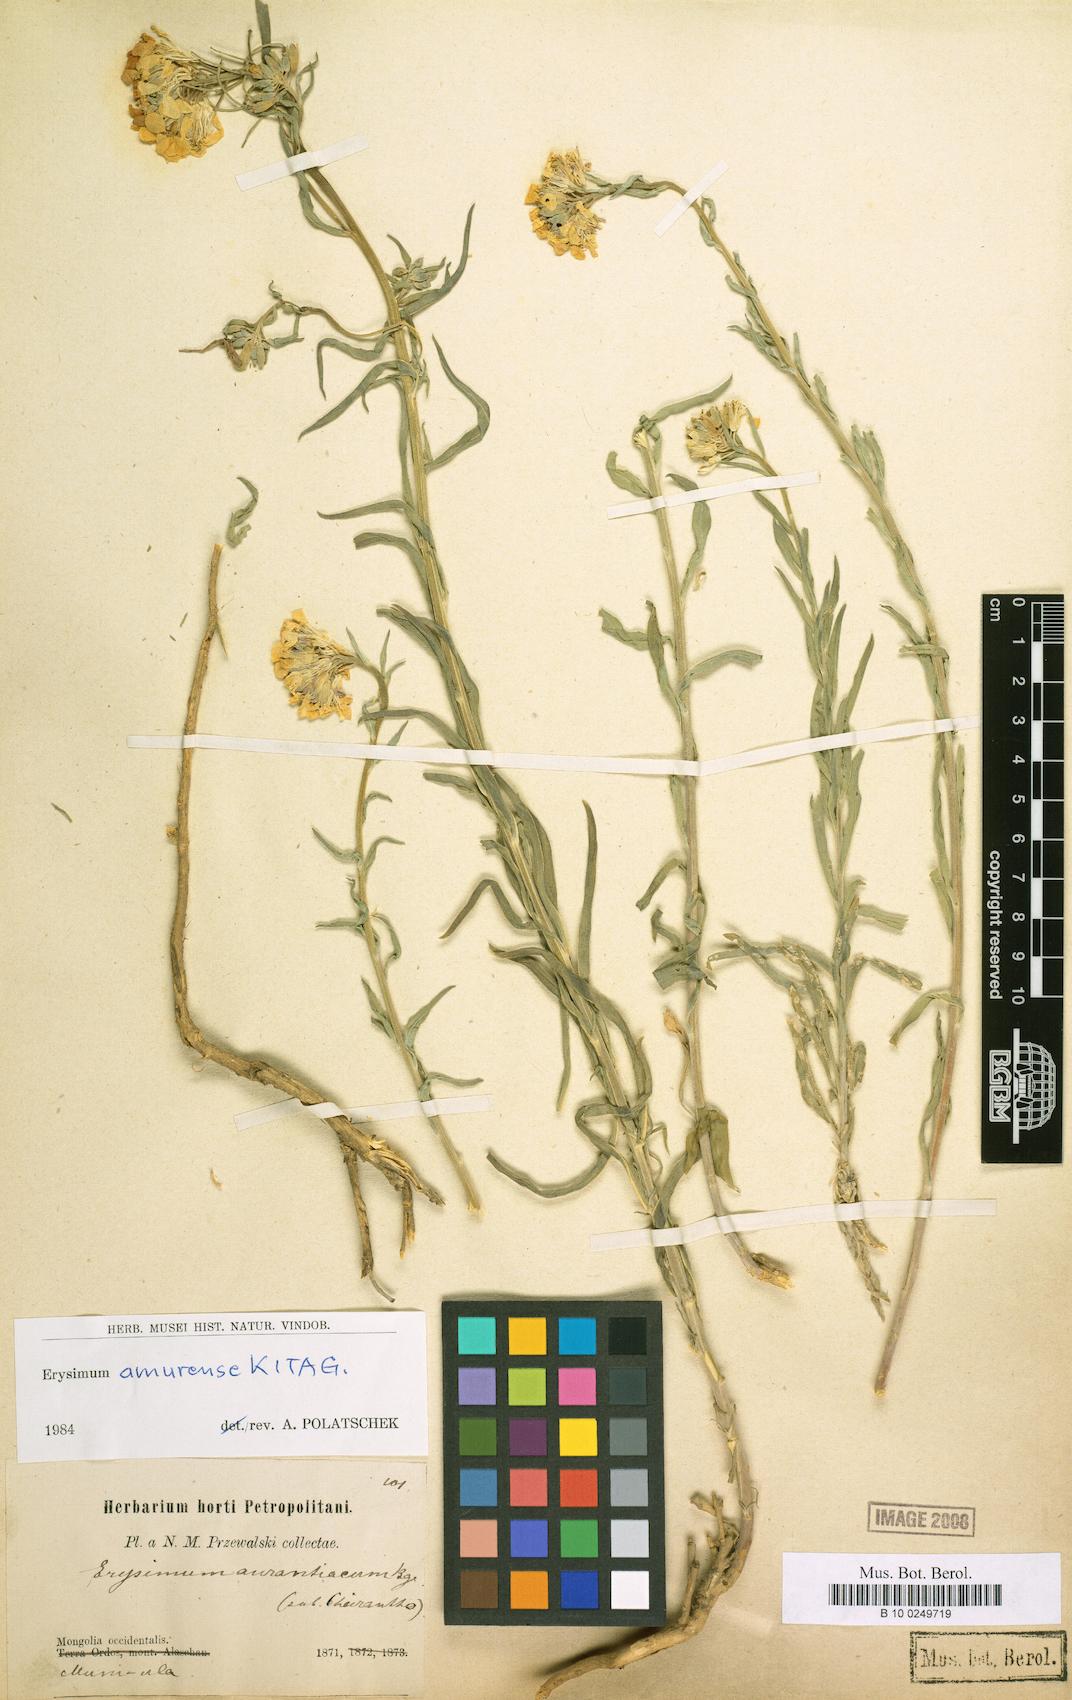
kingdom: Plantae
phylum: Tracheophyta
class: Magnoliopsida
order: Brassicales
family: Brassicaceae
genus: Erysimum
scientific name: Erysimum amurense
